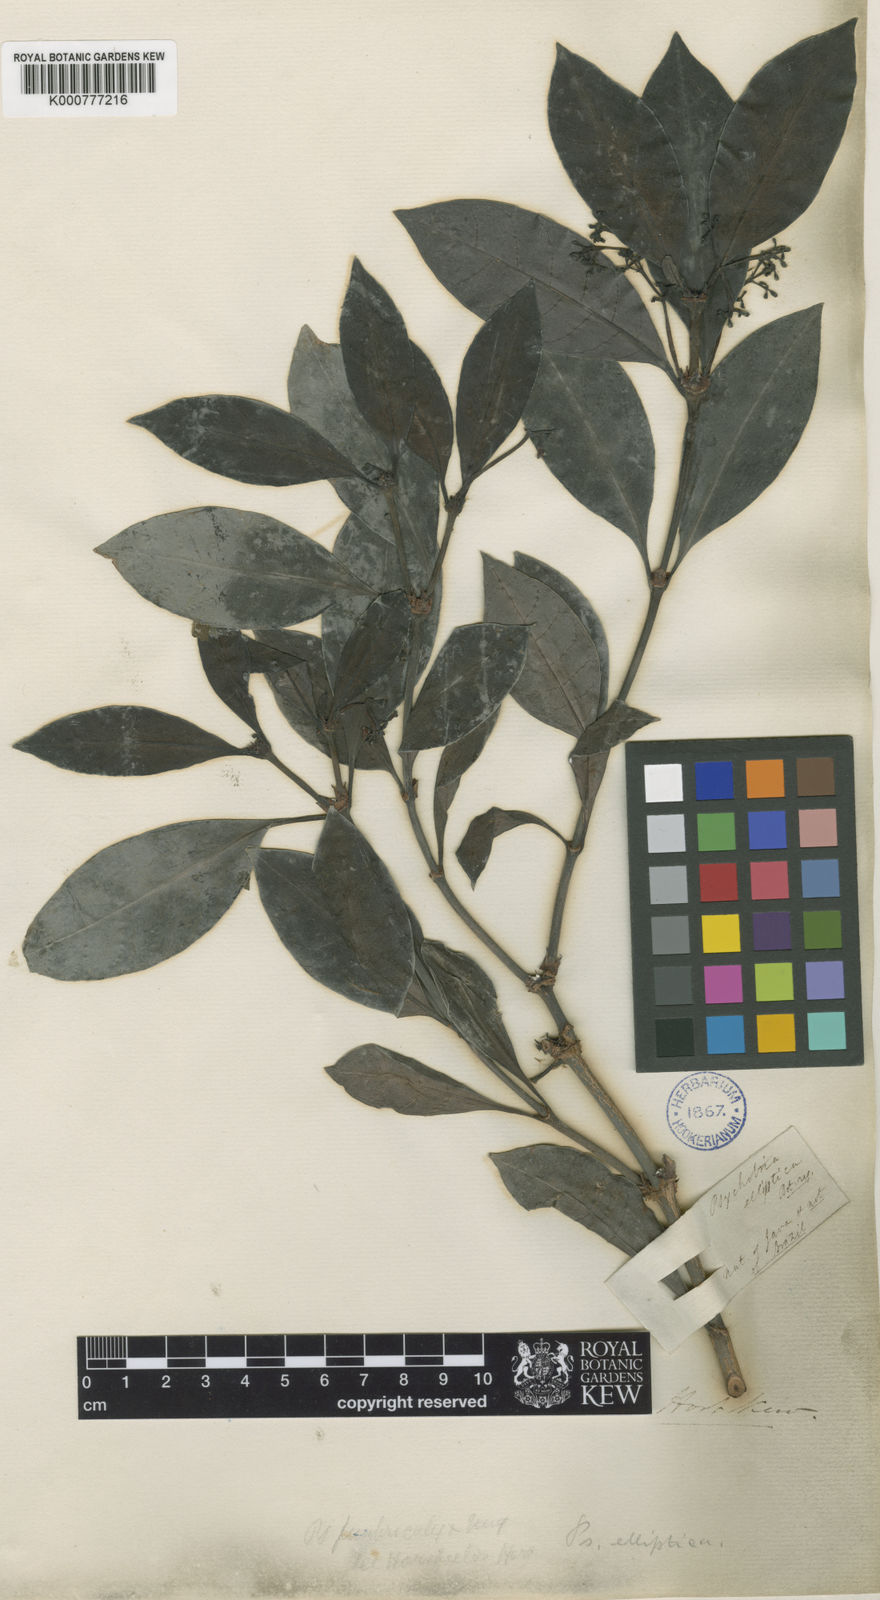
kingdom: Plantae
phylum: Tracheophyta
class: Magnoliopsida
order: Gentianales
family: Rubiaceae
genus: Psychotria
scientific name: Psychotria carthagenensis
